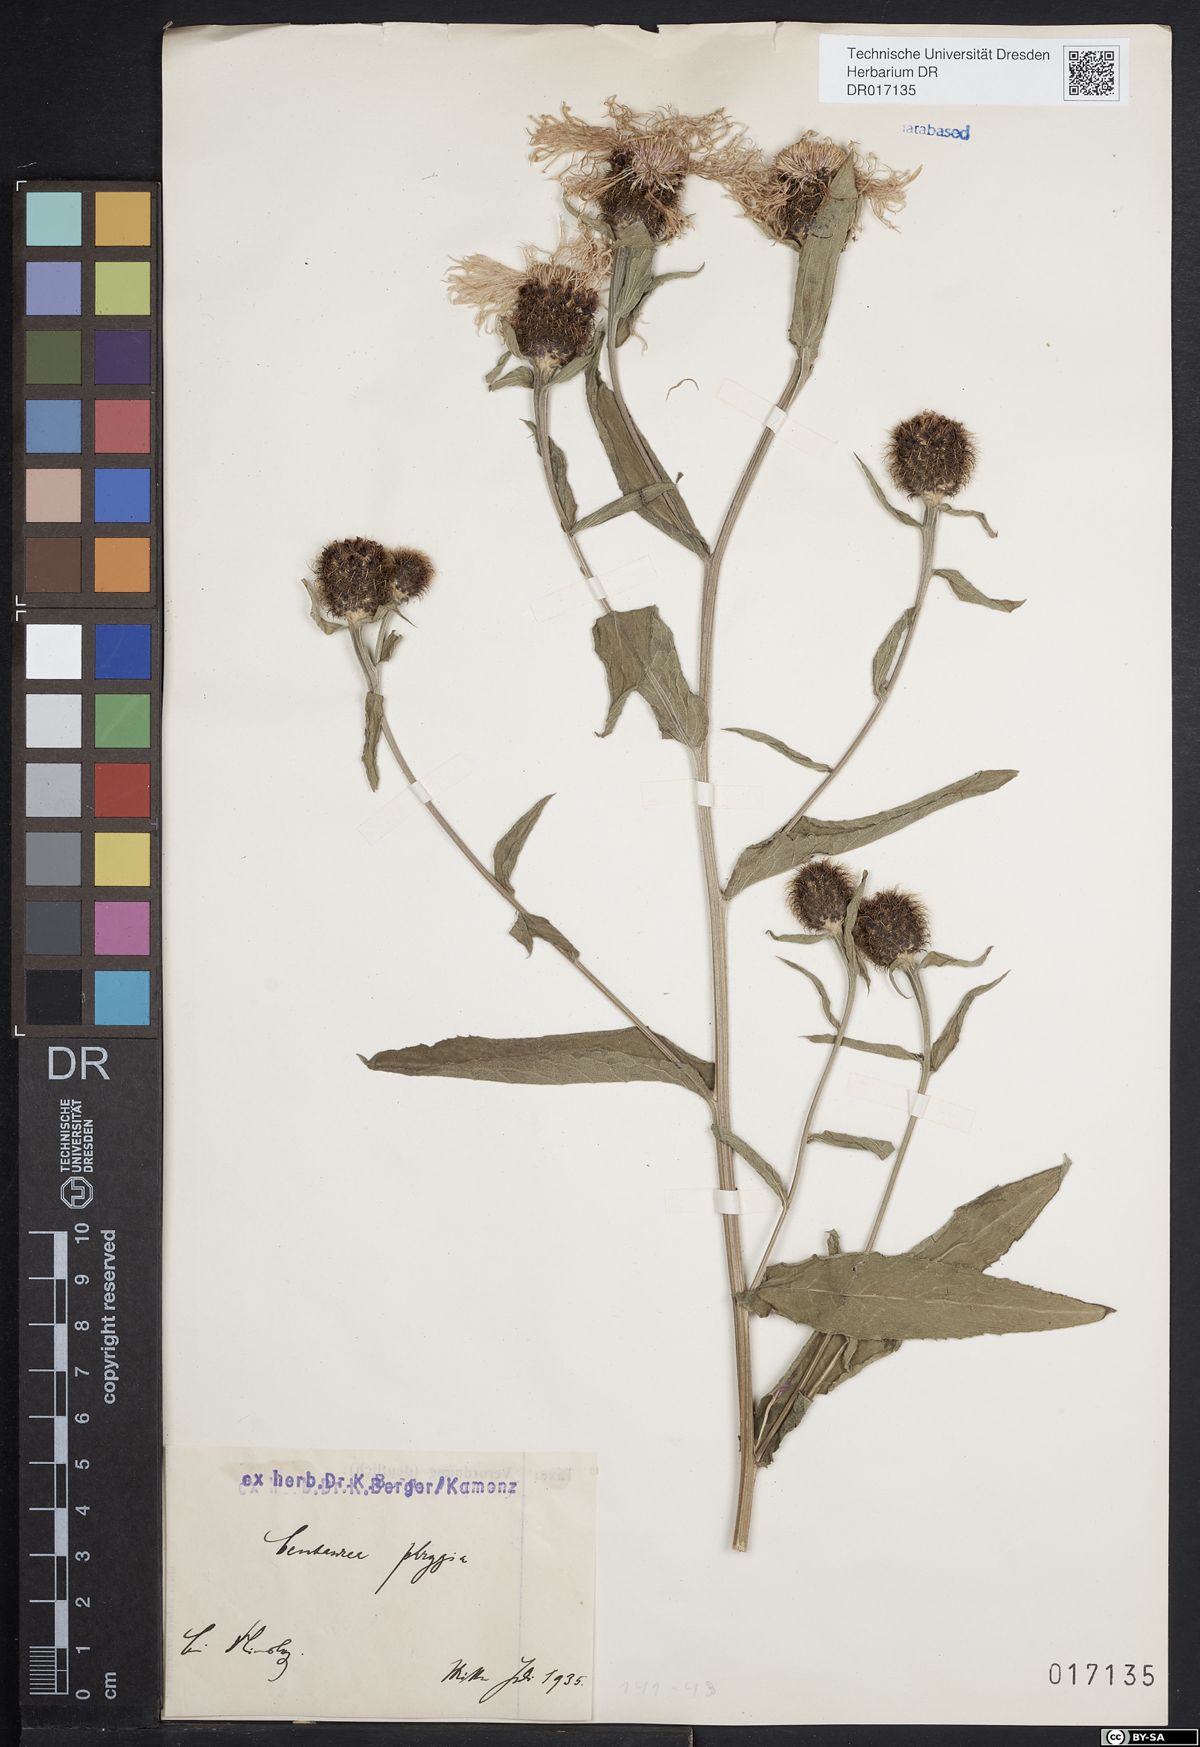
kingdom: Plantae
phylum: Tracheophyta
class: Magnoliopsida
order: Asterales
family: Asteraceae
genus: Centaurea
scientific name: Centaurea pseudophrygia
